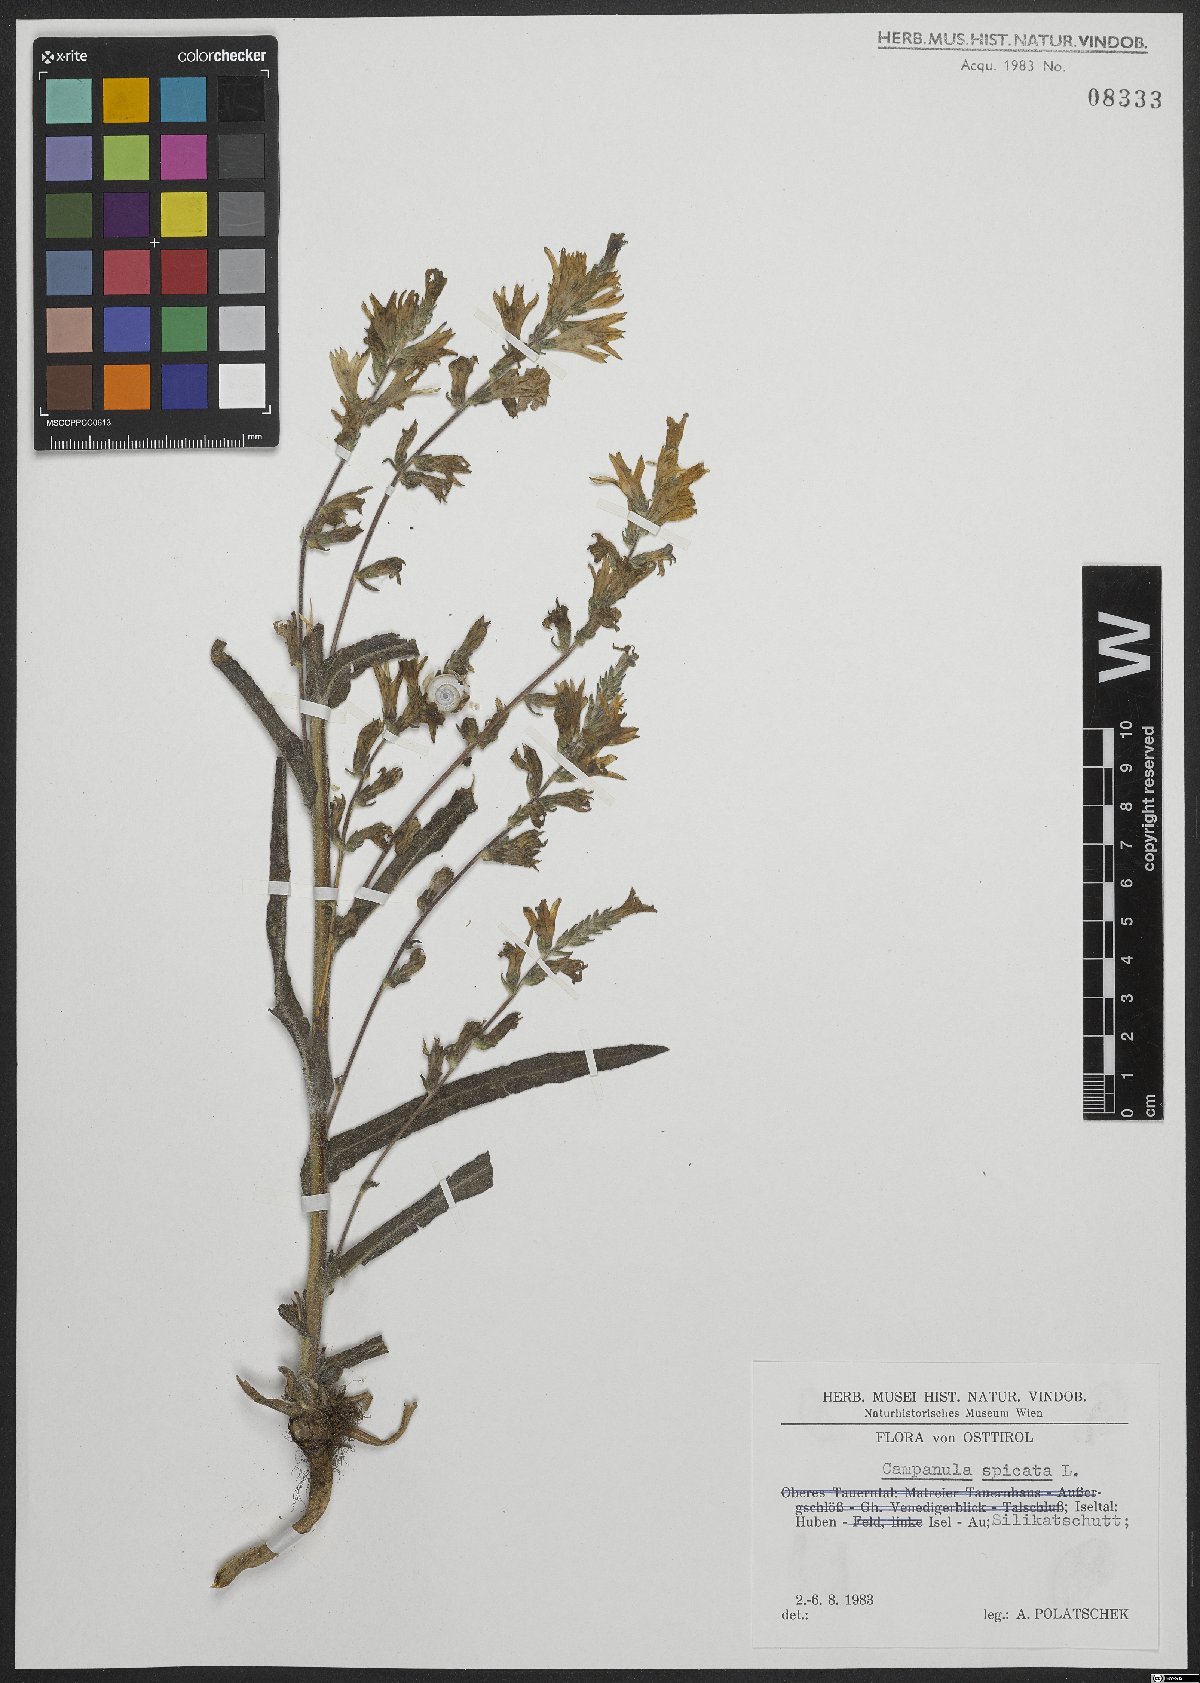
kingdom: Plantae
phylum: Tracheophyta
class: Magnoliopsida
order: Asterales
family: Campanulaceae
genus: Campanula
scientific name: Campanula spicata
